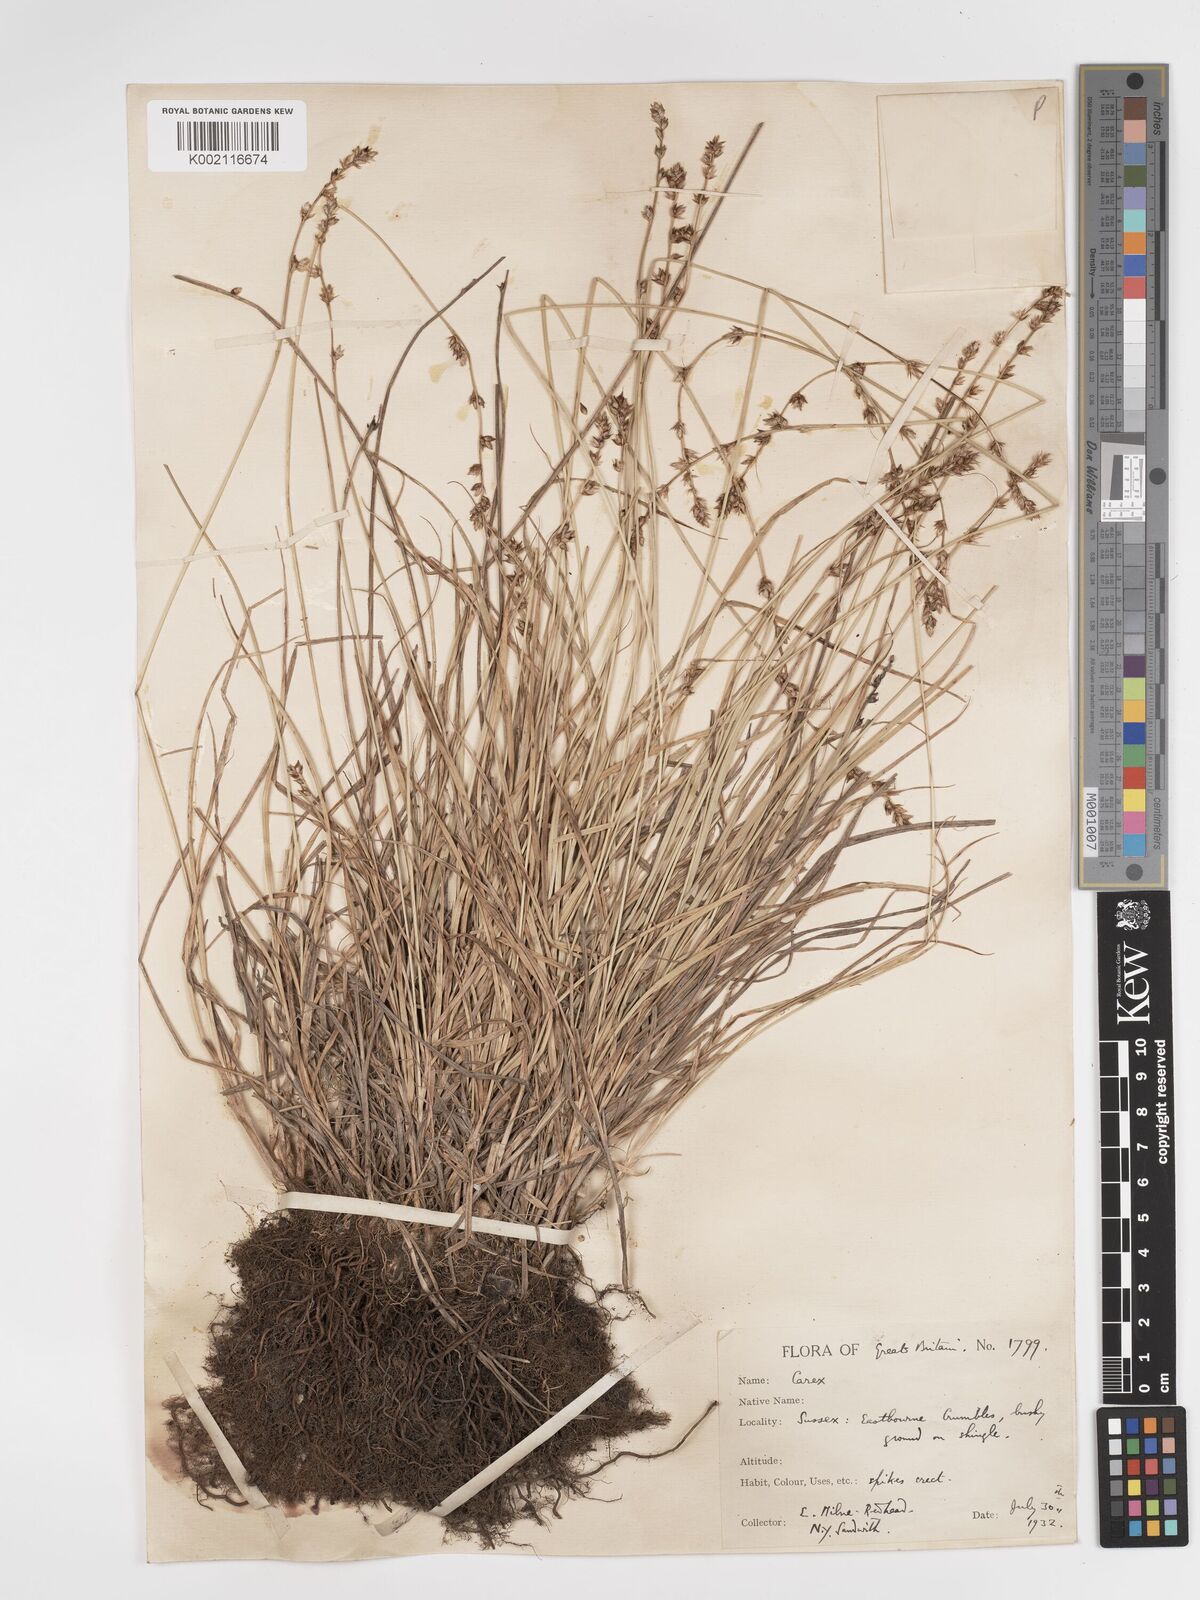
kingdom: Plantae
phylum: Tracheophyta
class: Liliopsida
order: Poales
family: Cyperaceae
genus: Carex
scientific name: Carex divulsa
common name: Grassland sedge
